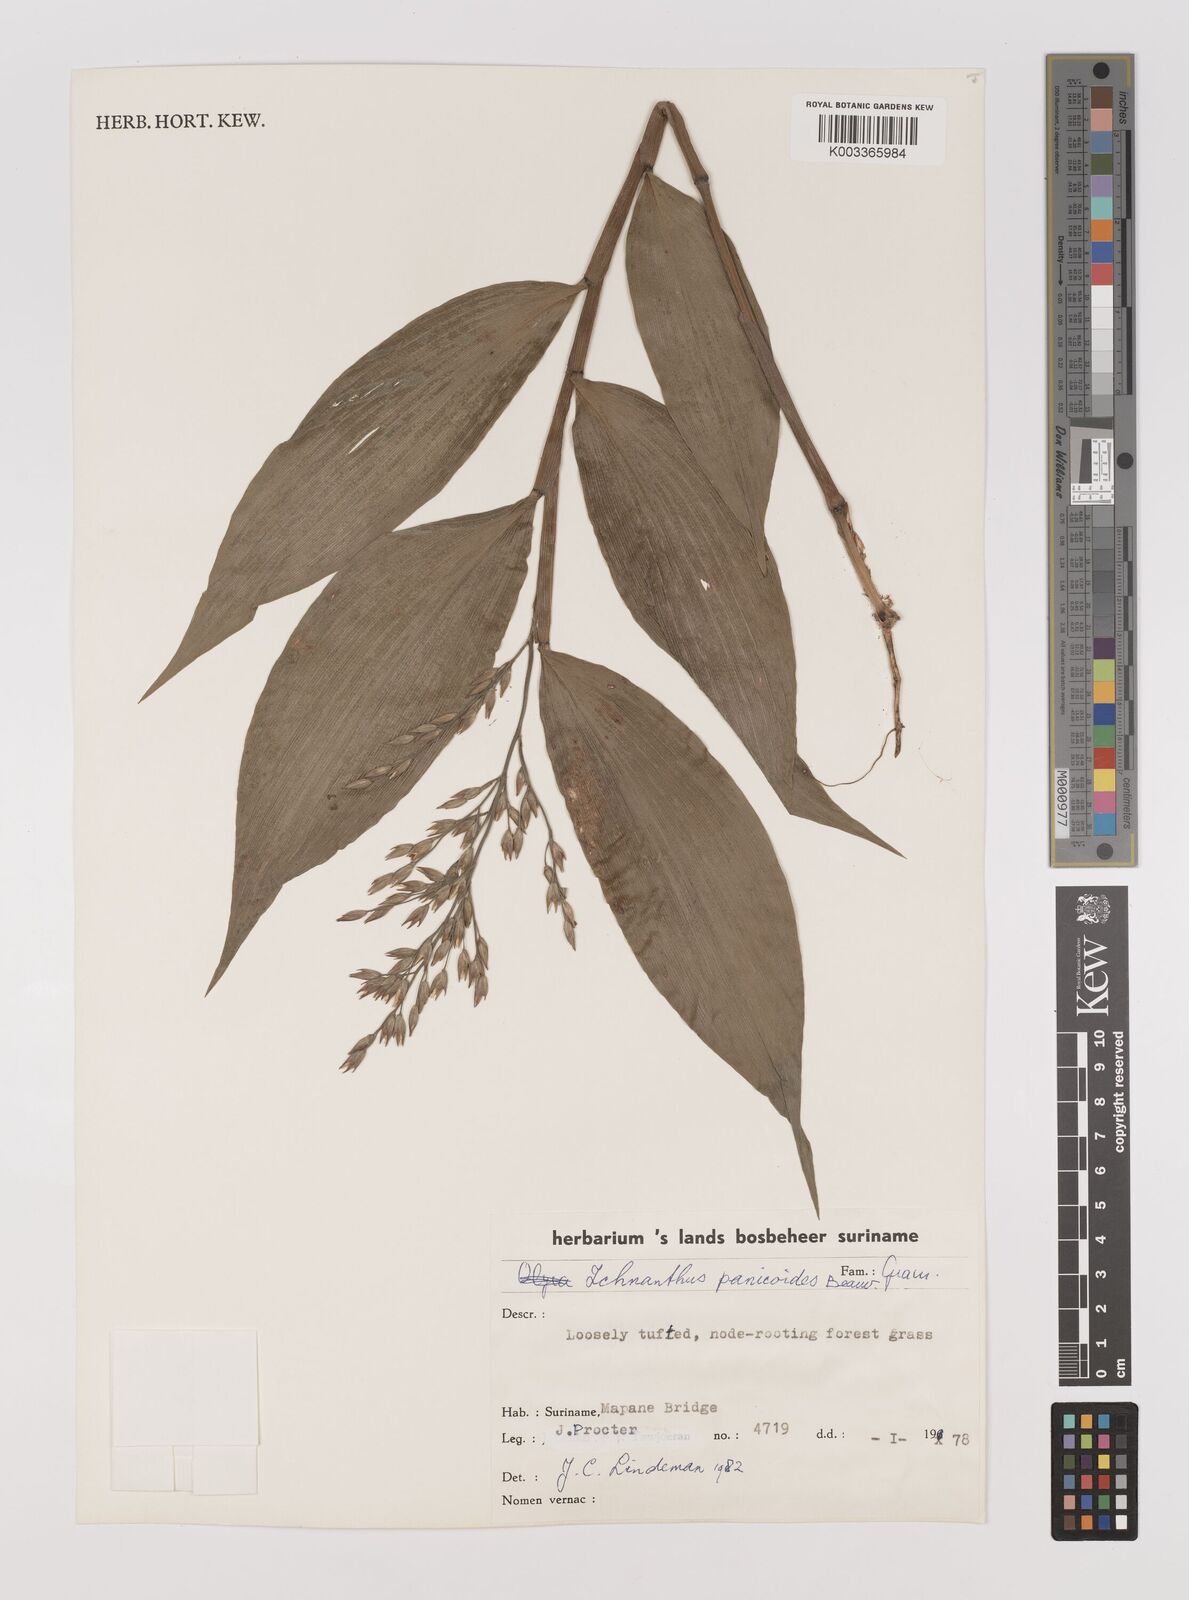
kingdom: Plantae
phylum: Tracheophyta
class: Liliopsida
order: Poales
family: Poaceae
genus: Ichnanthus
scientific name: Ichnanthus panicoides
